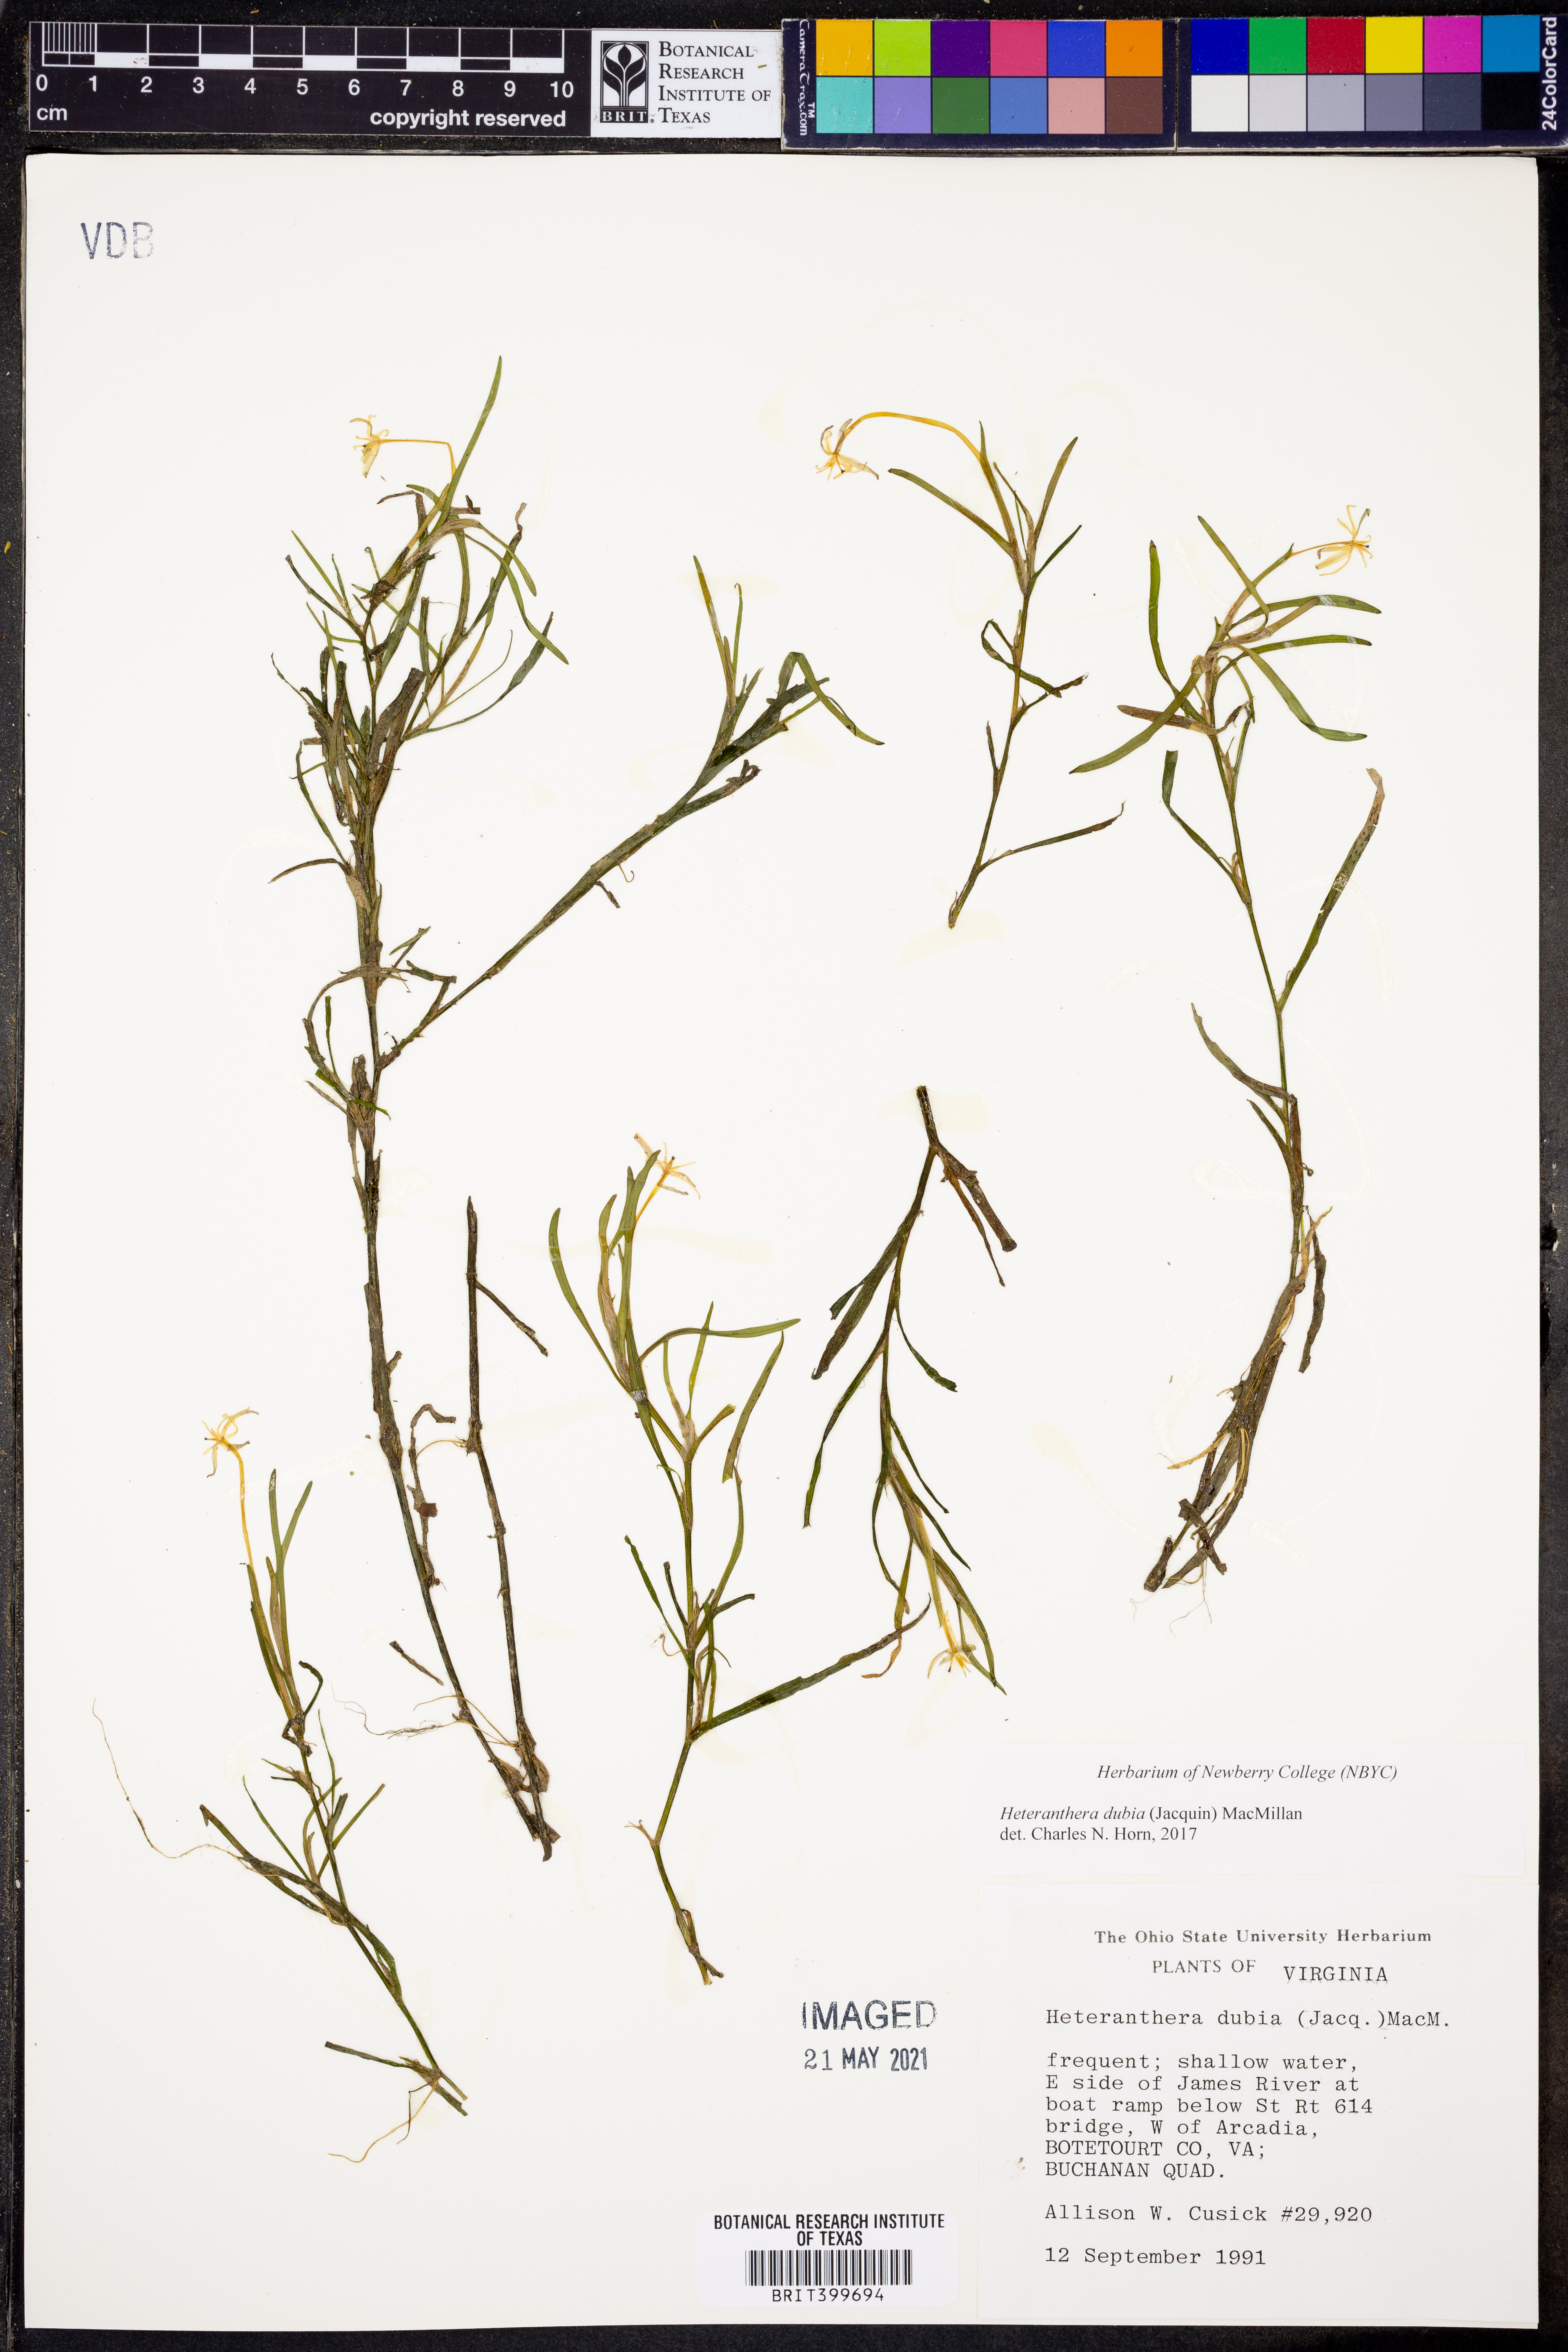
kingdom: Plantae
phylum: Tracheophyta
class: Liliopsida
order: Commelinales
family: Pontederiaceae
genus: Heteranthera
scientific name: Heteranthera dubia
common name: Grass-leaved mud plantain
